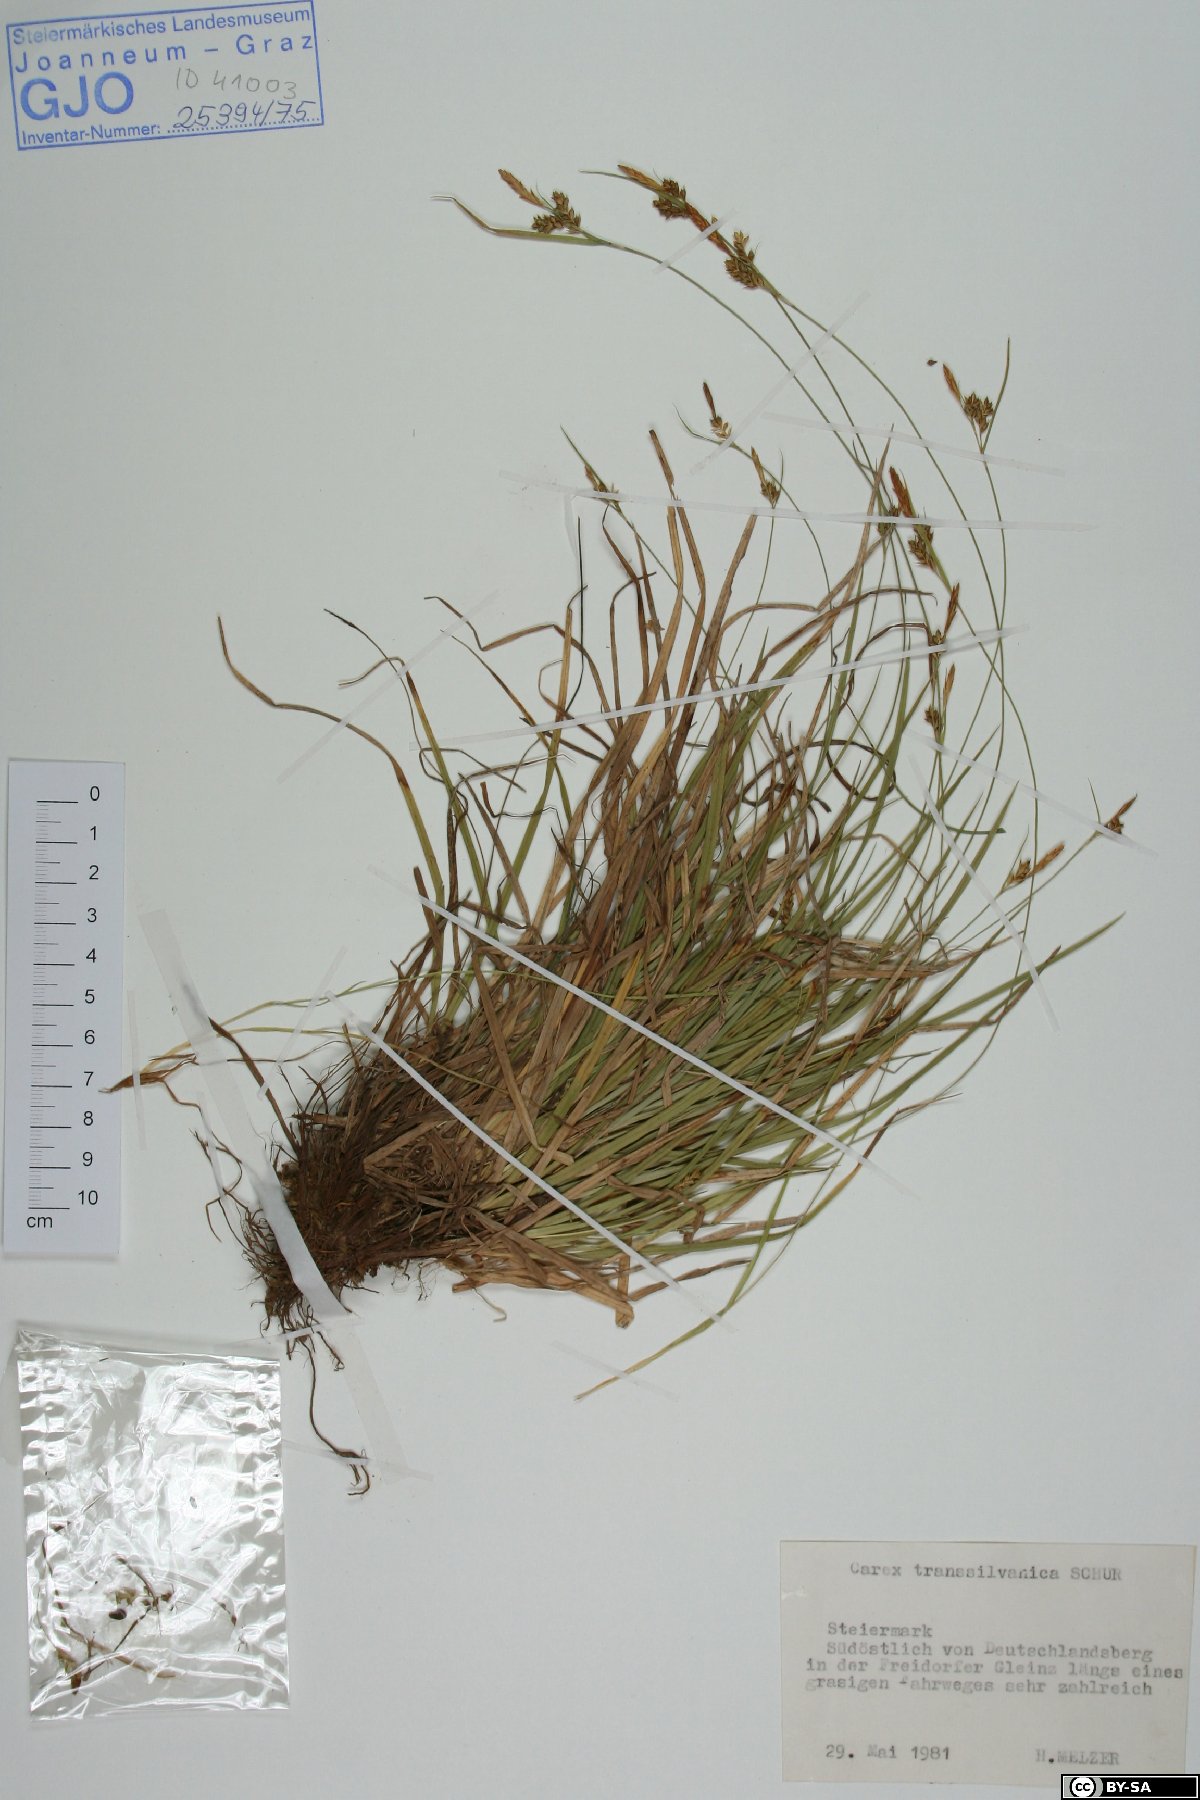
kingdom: Plantae
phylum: Tracheophyta
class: Liliopsida
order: Poales
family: Cyperaceae
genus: Carex
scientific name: Carex depressa
